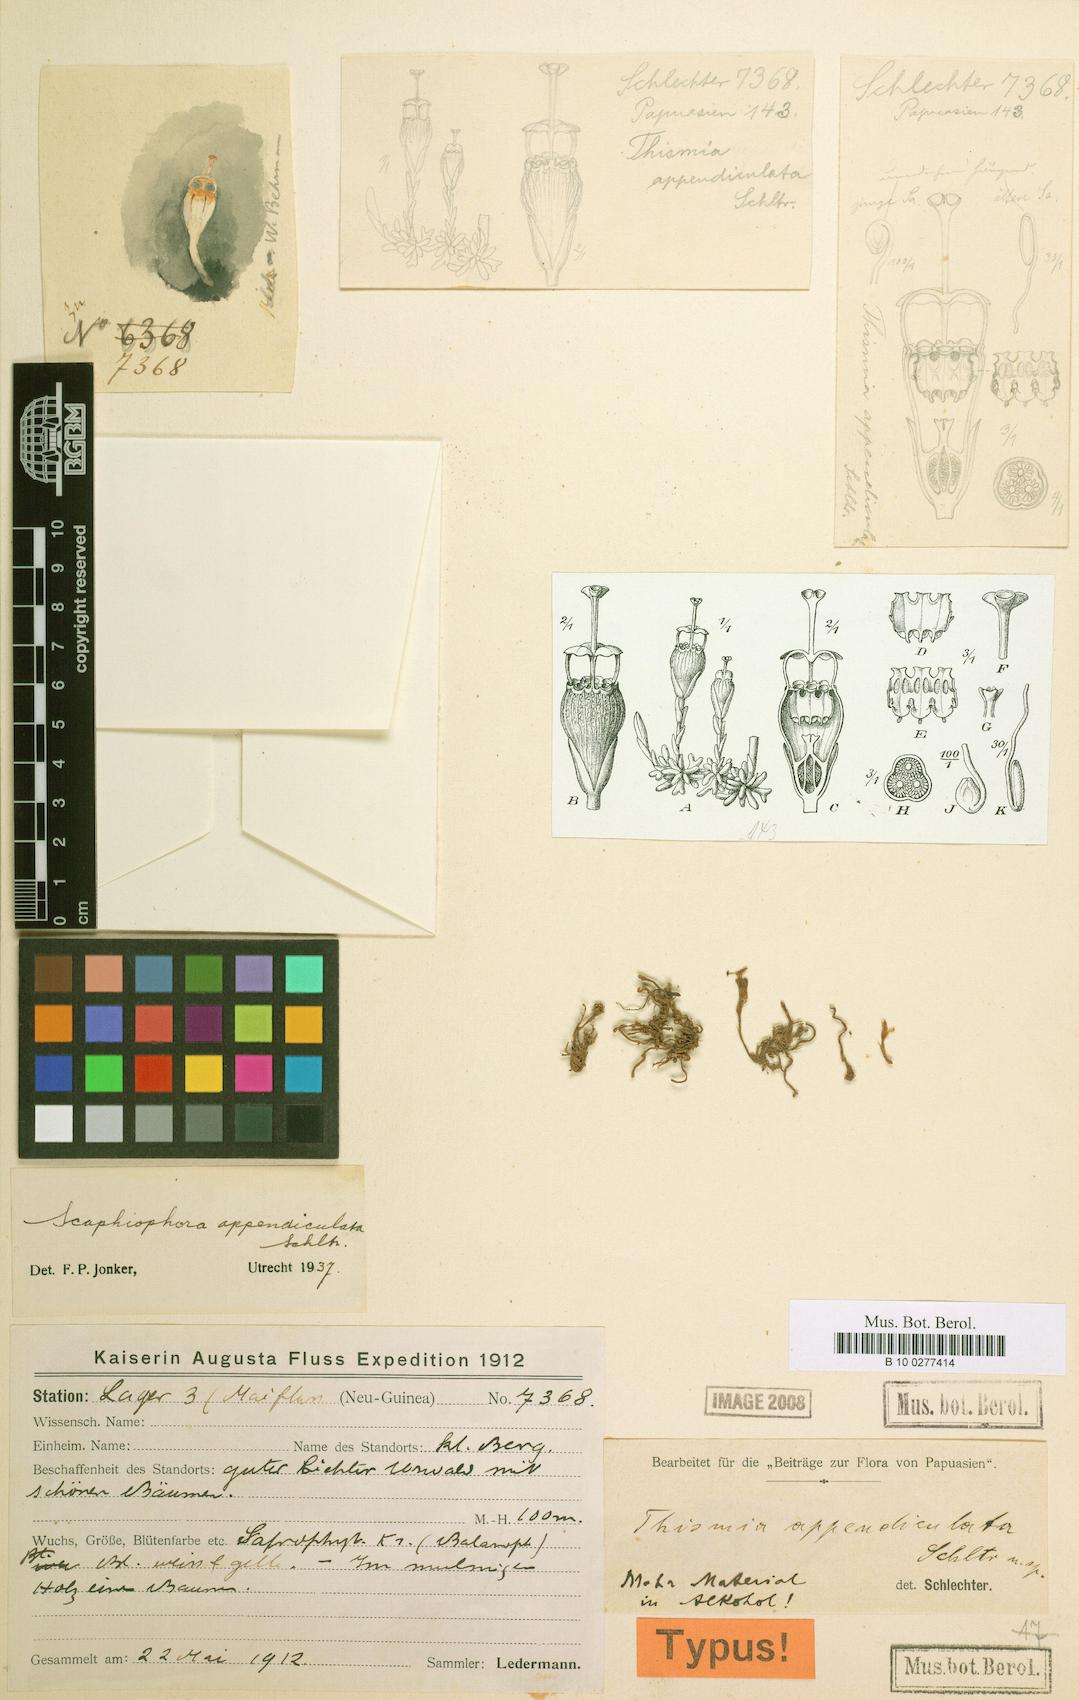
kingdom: Plantae
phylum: Tracheophyta
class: Liliopsida
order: Dioscoreales
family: Burmanniaceae
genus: Thismia
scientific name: Thismia appendiculata
